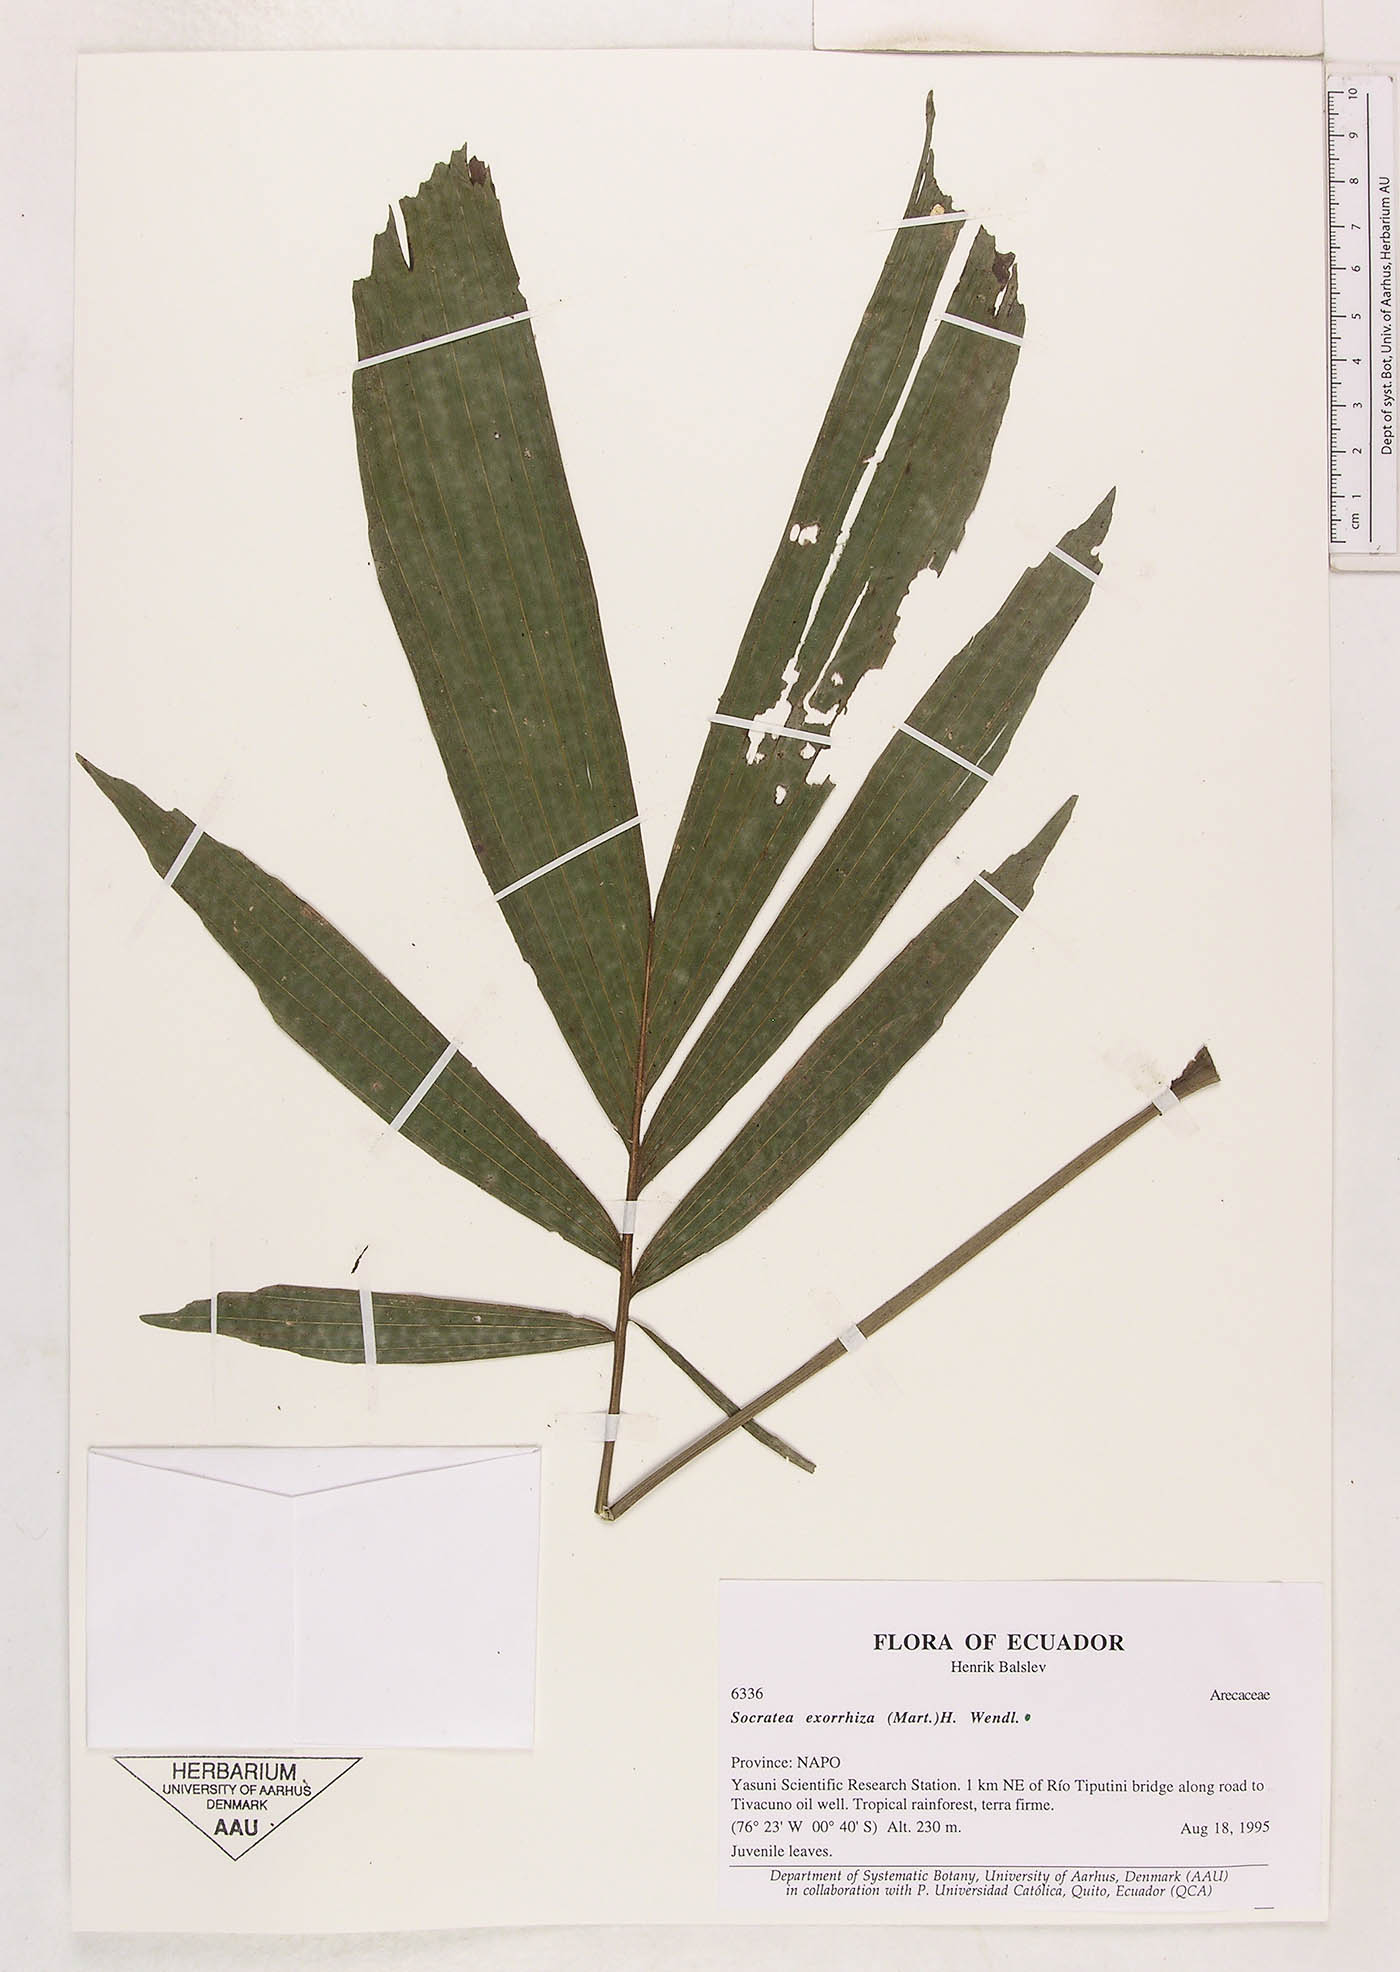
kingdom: Plantae
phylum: Tracheophyta
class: Liliopsida
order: Arecales
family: Arecaceae
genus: Socratea
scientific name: Socratea exorrhiza
